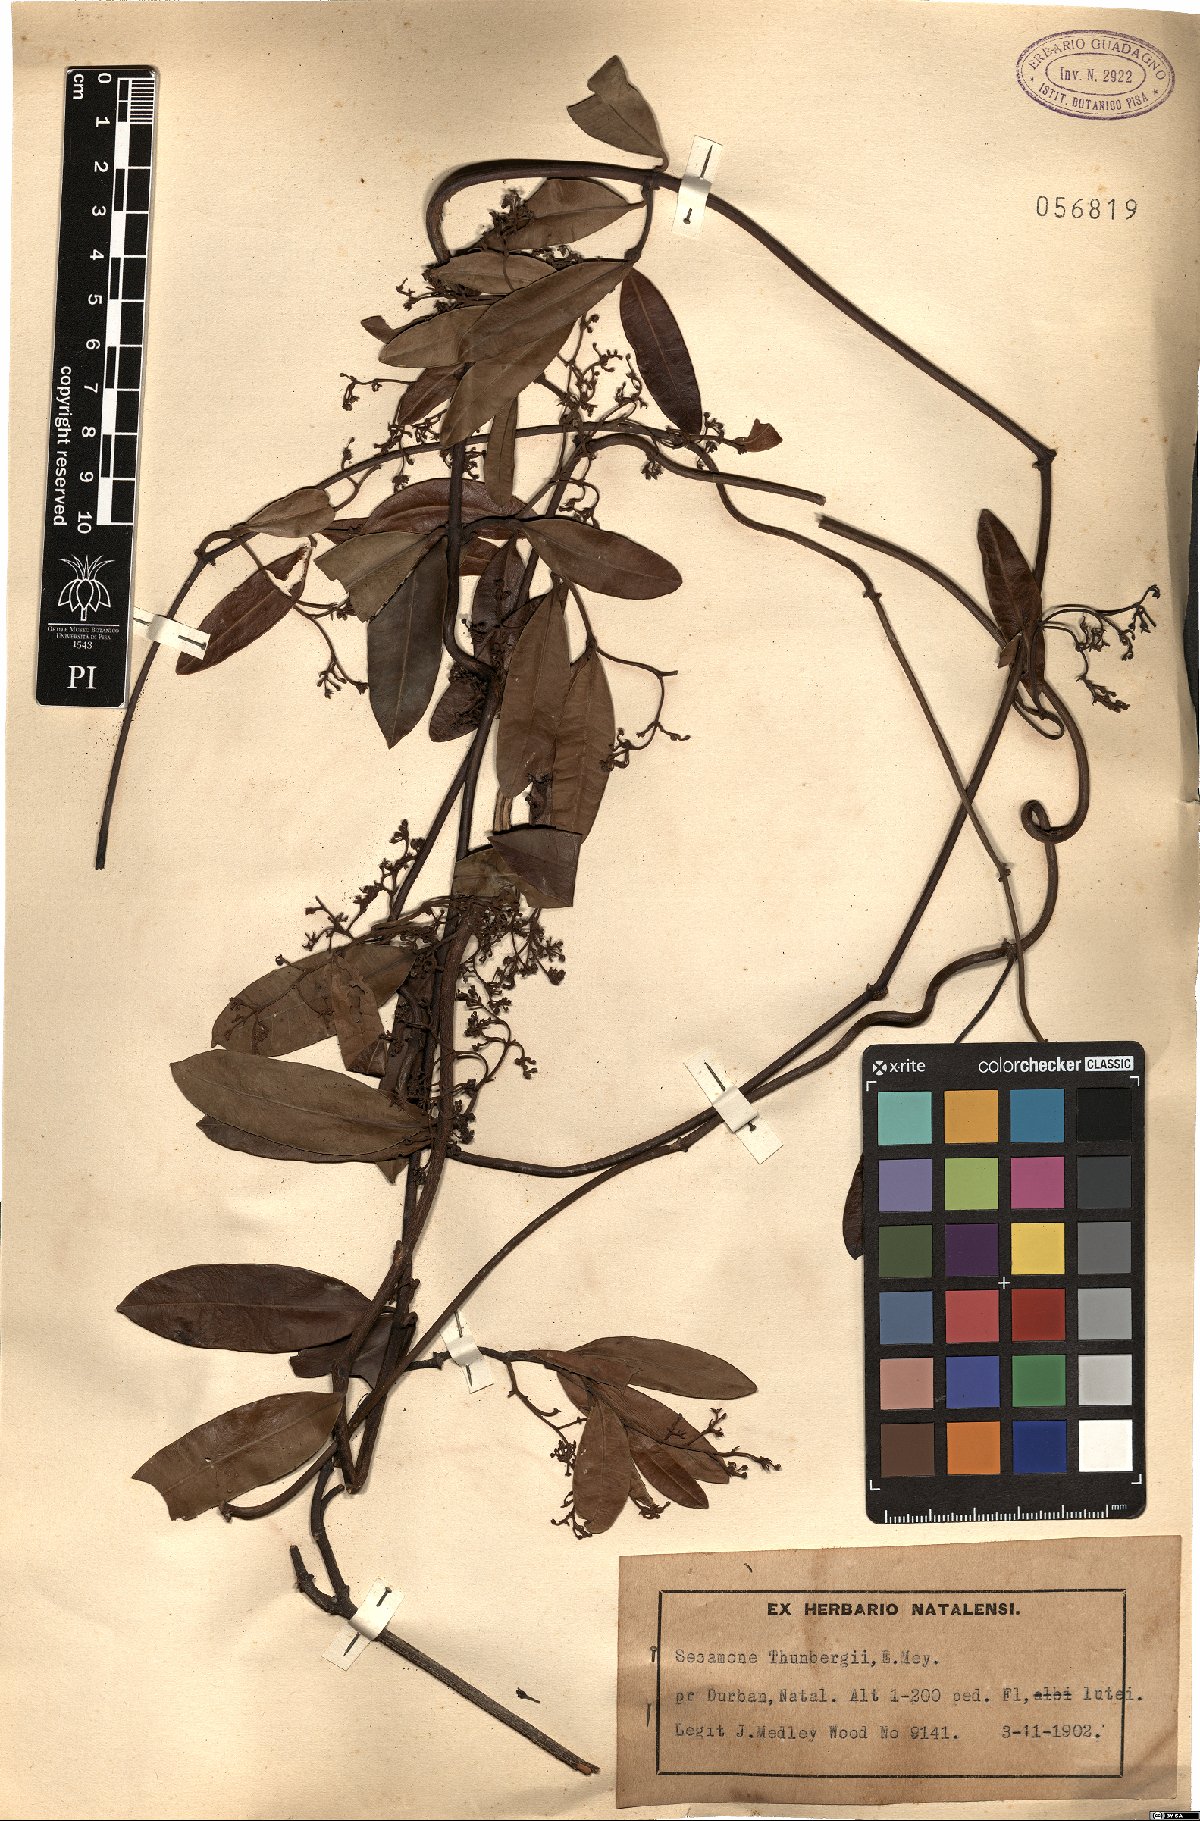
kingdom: Plantae
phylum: Tracheophyta
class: Magnoliopsida
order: Gentianales
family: Apocynaceae
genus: Secamone
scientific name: Secamone alpini
